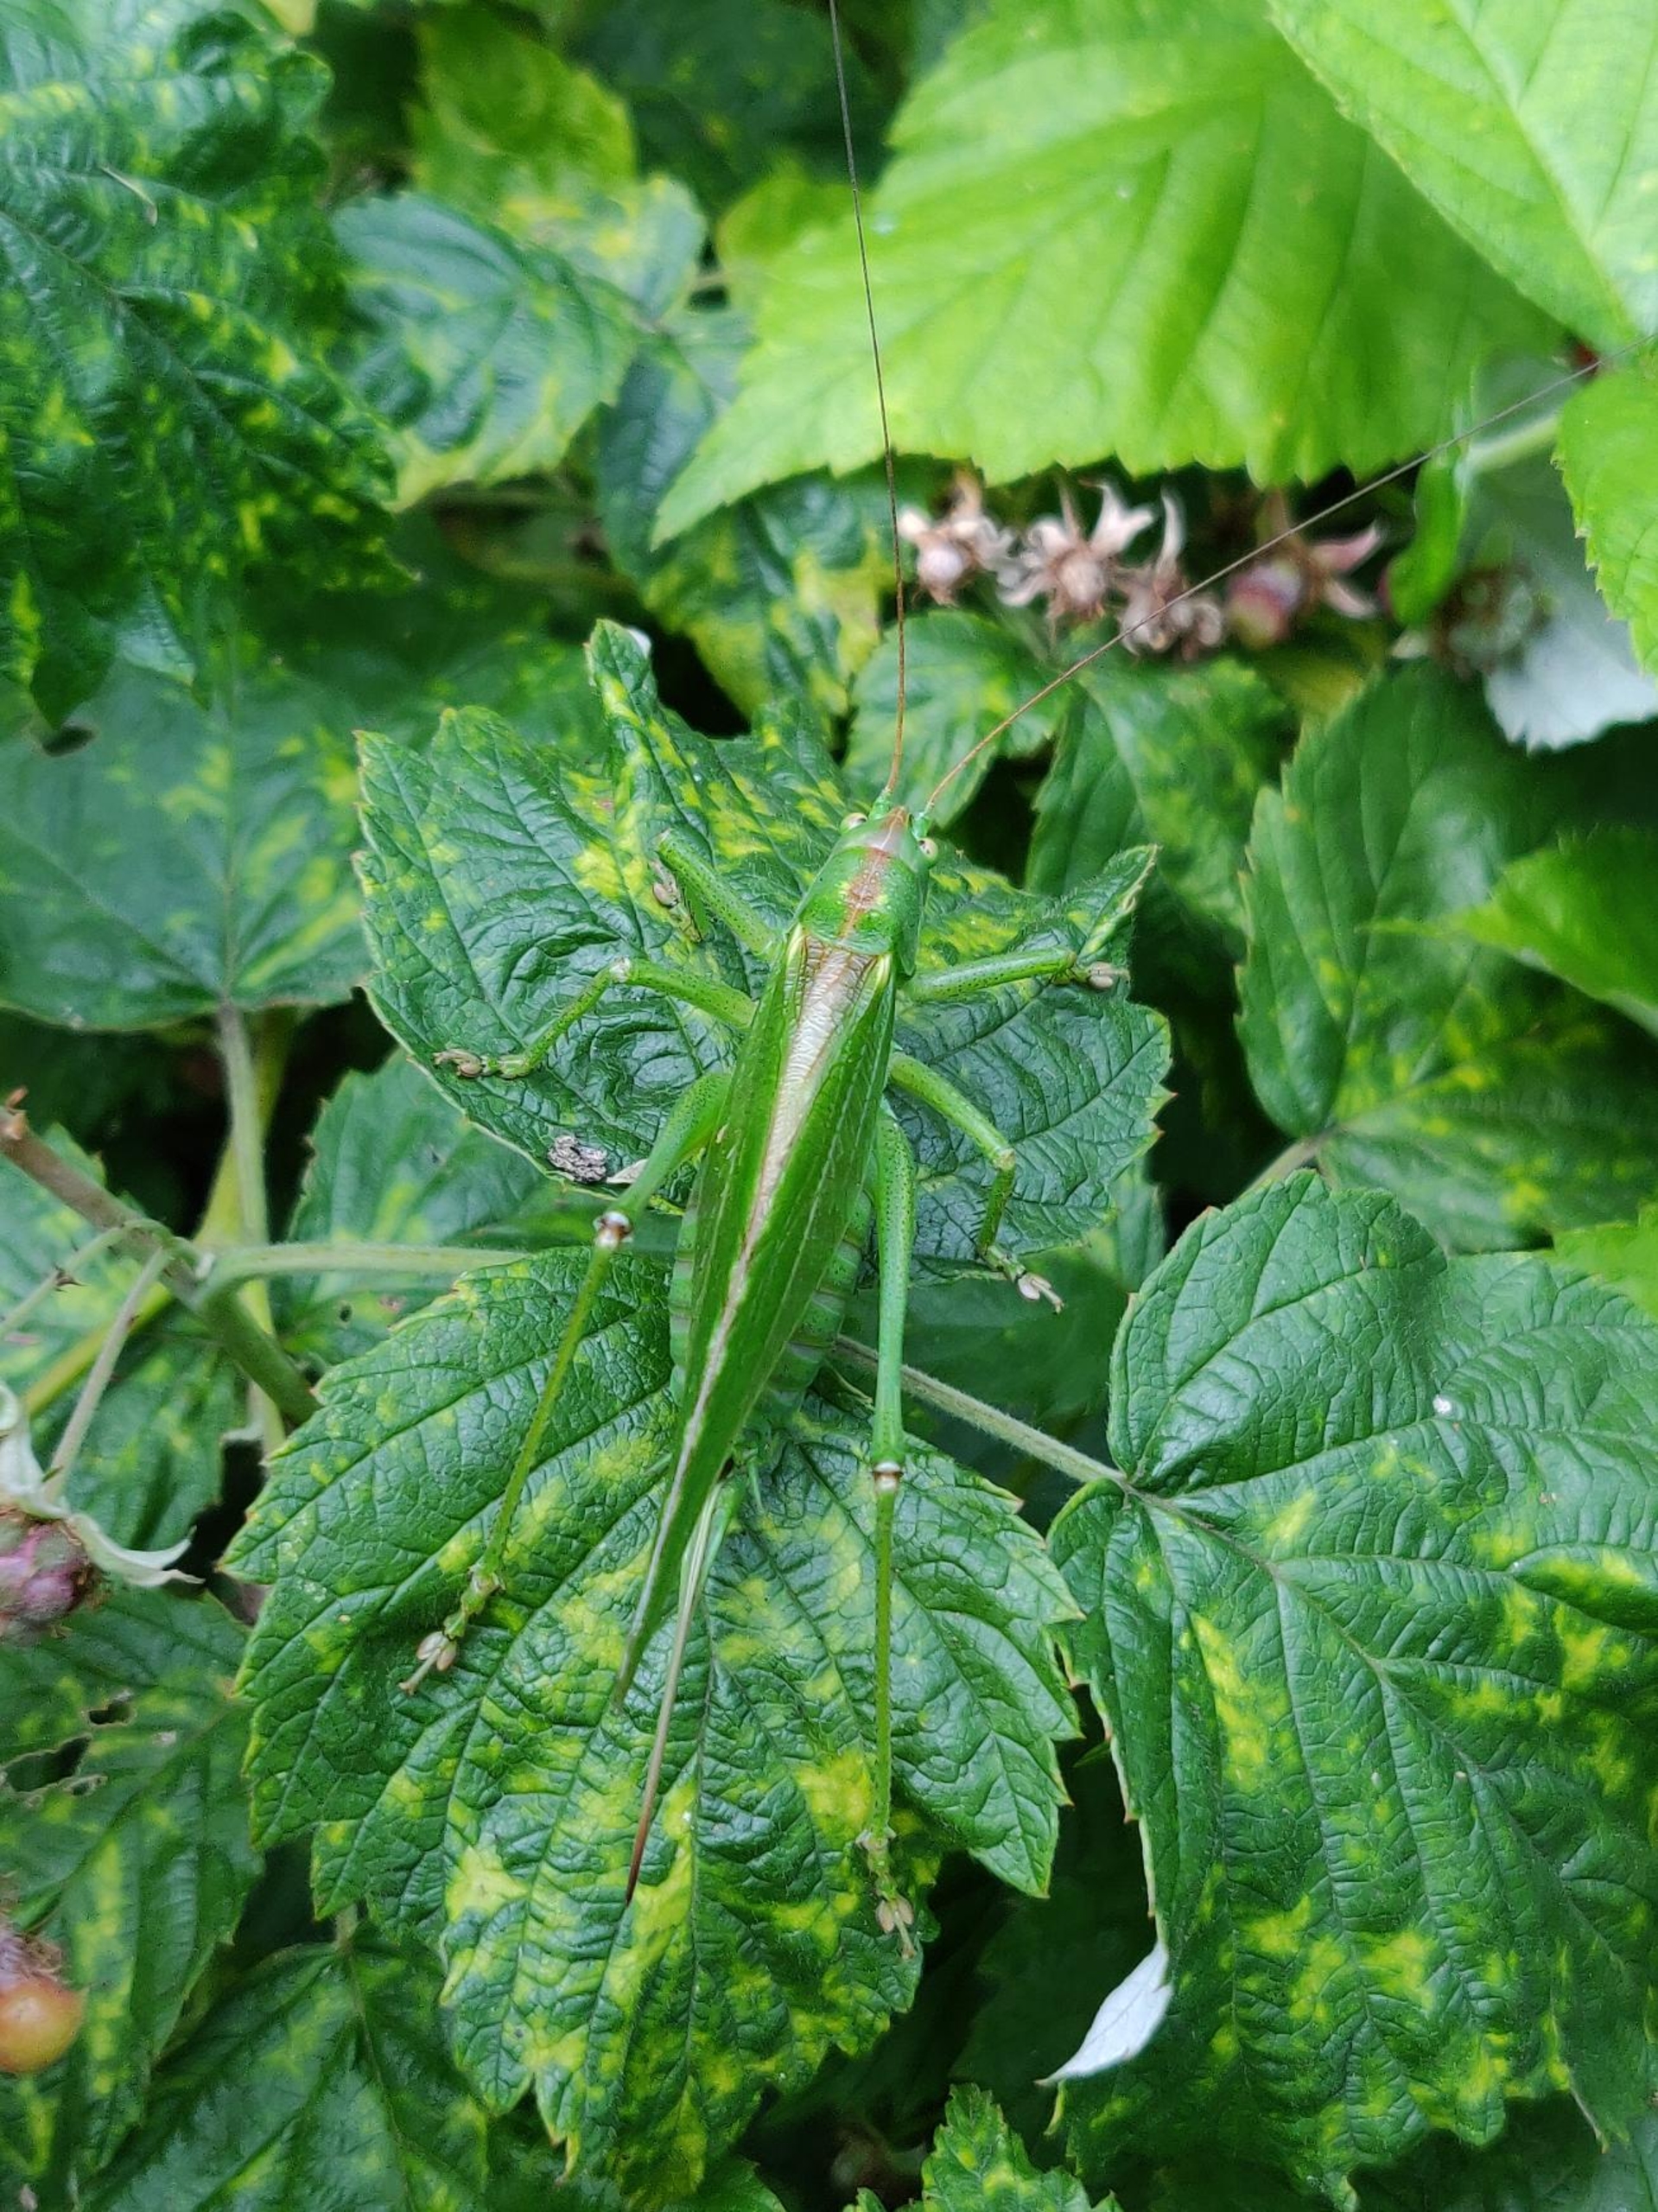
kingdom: Animalia
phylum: Arthropoda
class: Insecta
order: Orthoptera
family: Tettigoniidae
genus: Tettigonia
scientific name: Tettigonia viridissima
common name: Stor grøn løvgræshoppe
